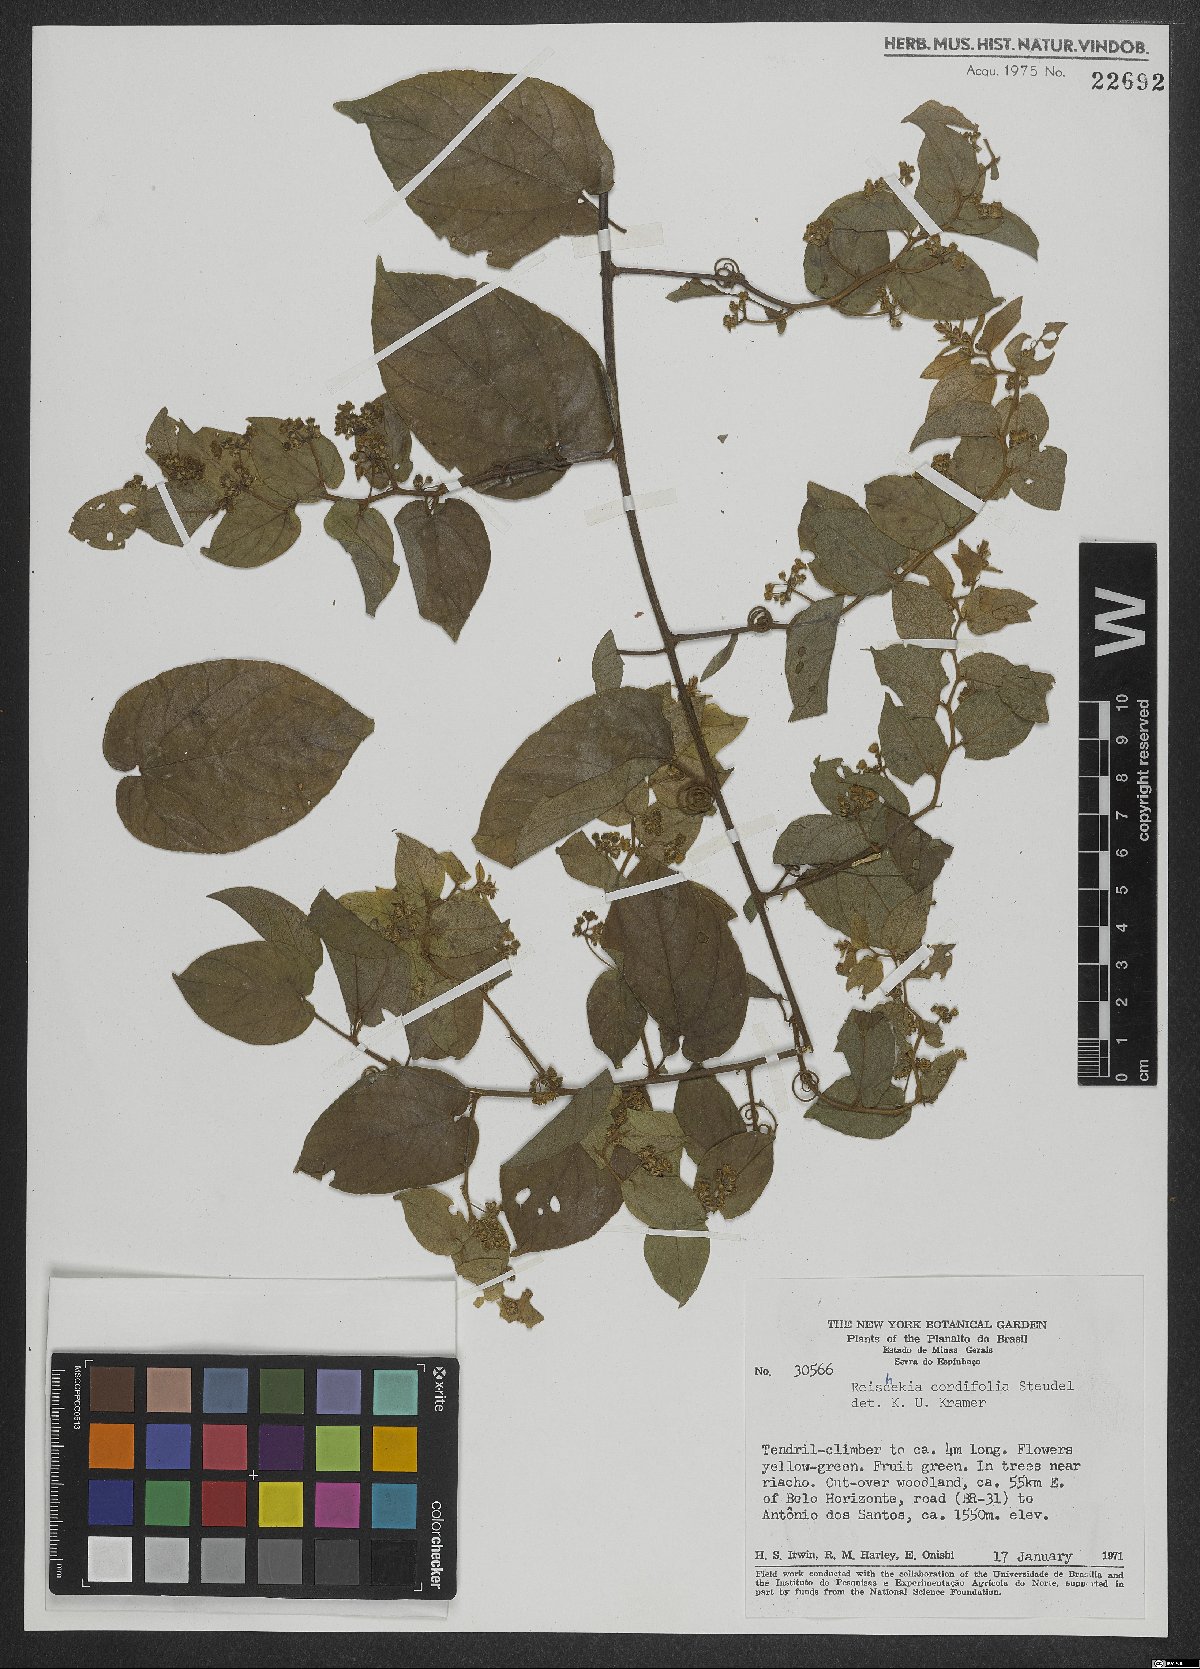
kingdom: Plantae
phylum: Tracheophyta
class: Magnoliopsida
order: Rosales
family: Rhamnaceae
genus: Reissekia
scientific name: Reissekia smilacina
